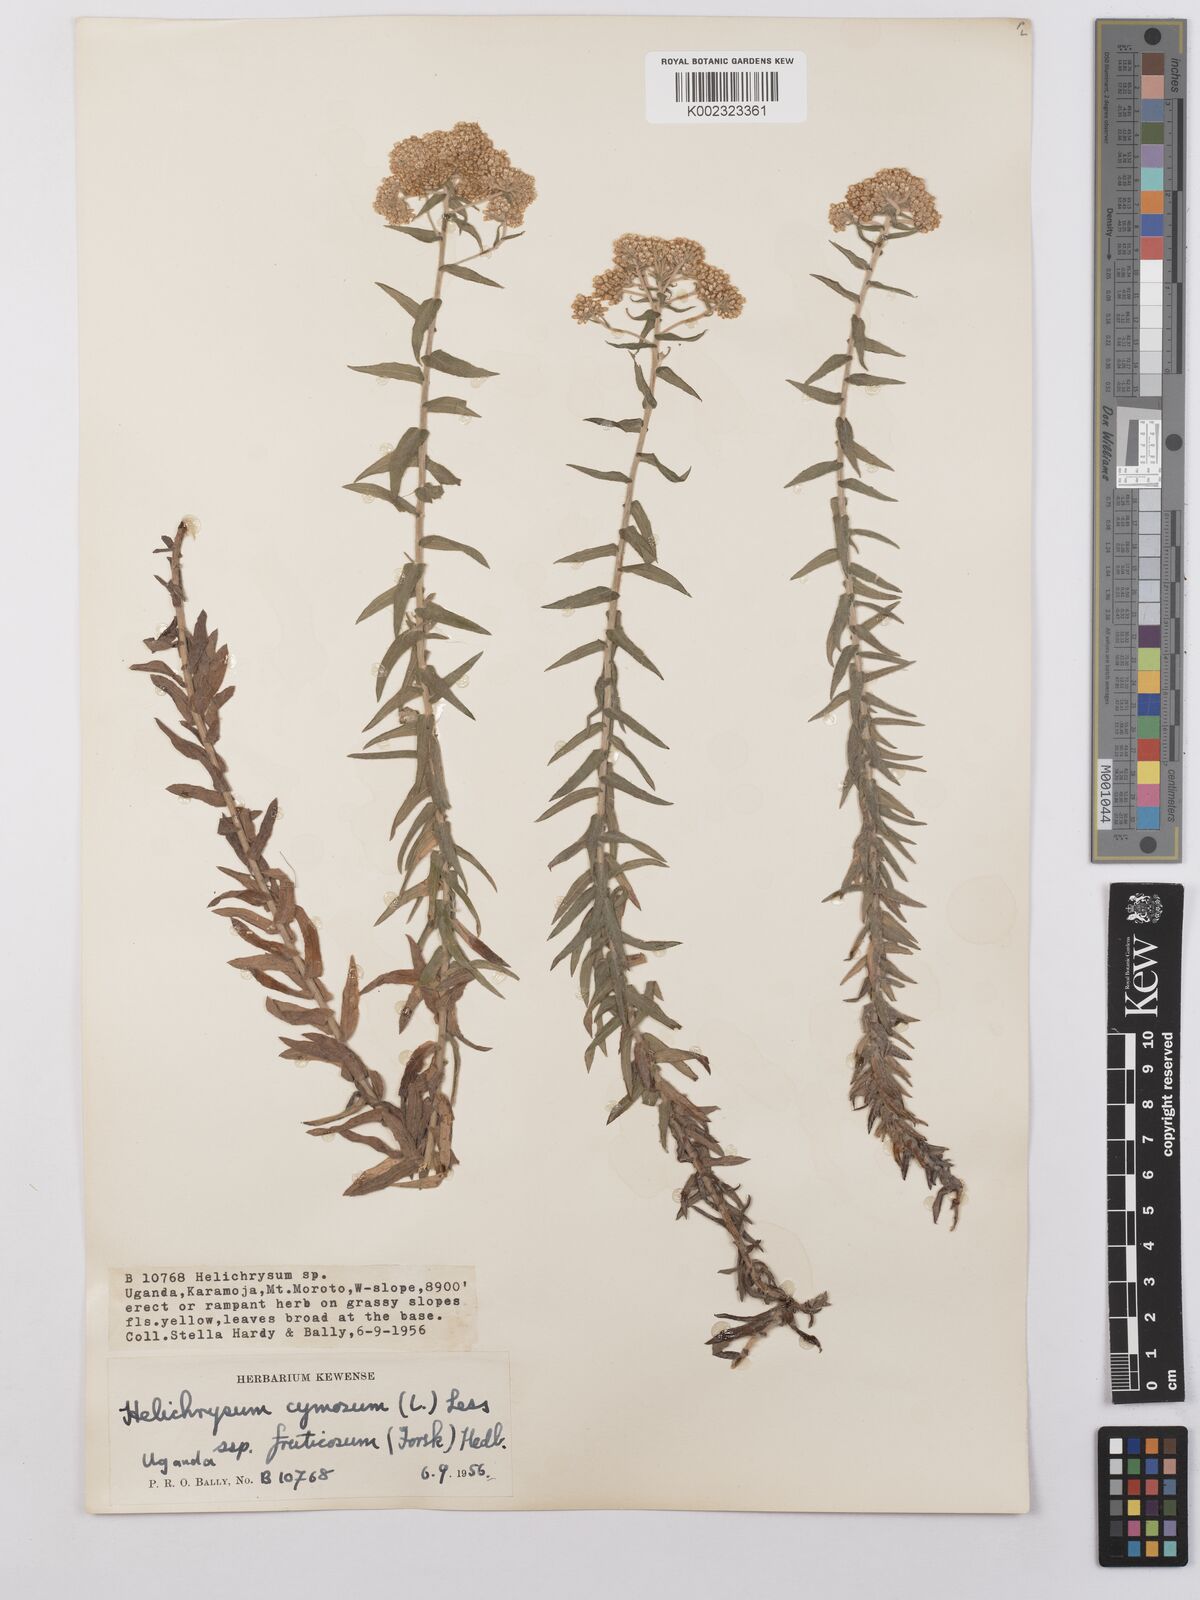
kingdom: Plantae
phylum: Tracheophyta
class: Magnoliopsida
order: Asterales
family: Asteraceae
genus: Helichrysum
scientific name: Helichrysum forskahlii
